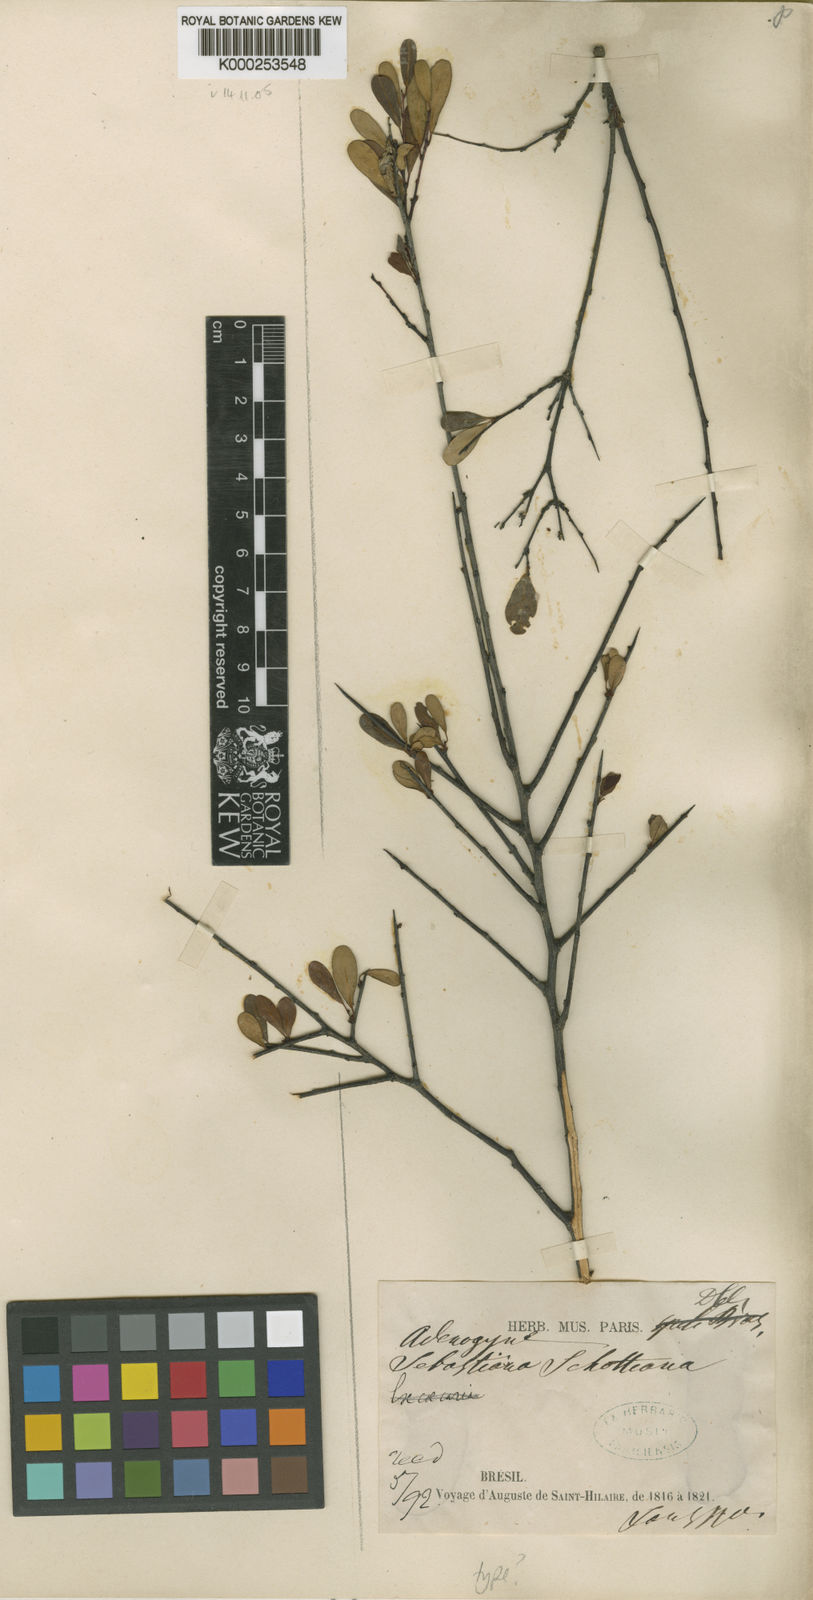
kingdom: Plantae
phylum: Tracheophyta
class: Magnoliopsida
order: Malpighiales
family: Euphorbiaceae
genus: Gymnanthes
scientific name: Gymnanthes
